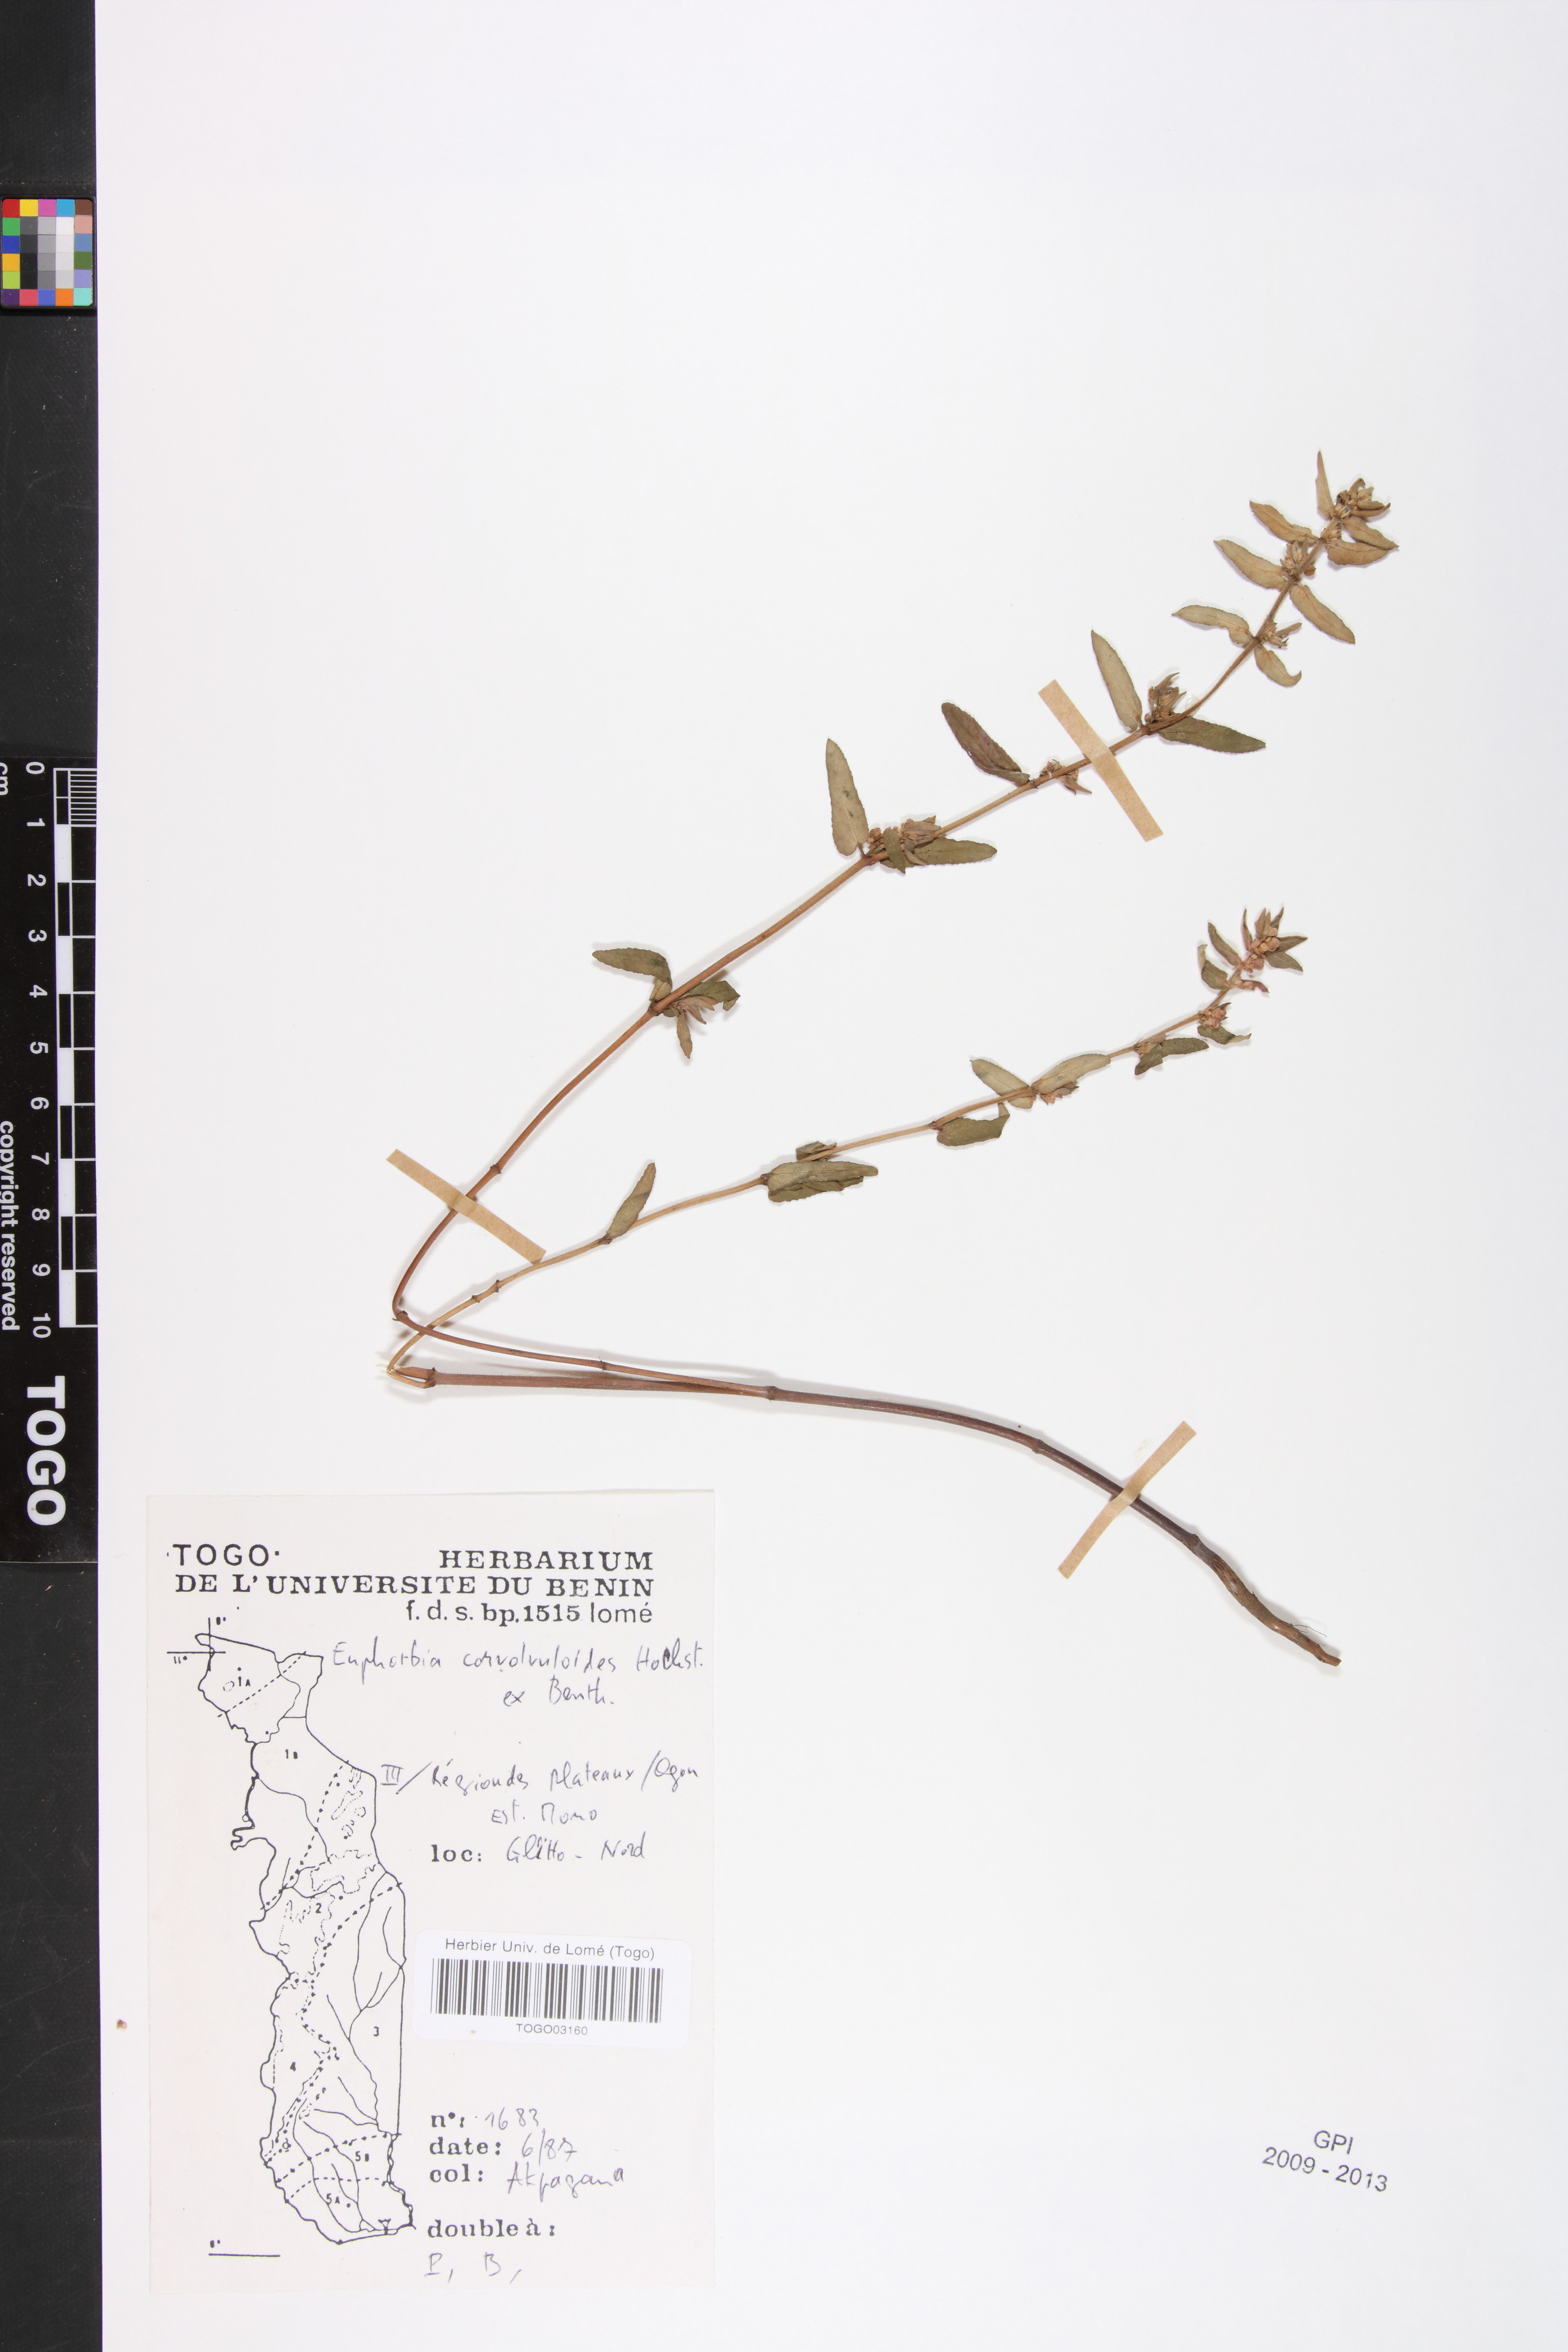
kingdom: Plantae
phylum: Tracheophyta
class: Magnoliopsida
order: Malpighiales
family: Euphorbiaceae
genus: Euphorbia
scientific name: Euphorbia convolvuloides
